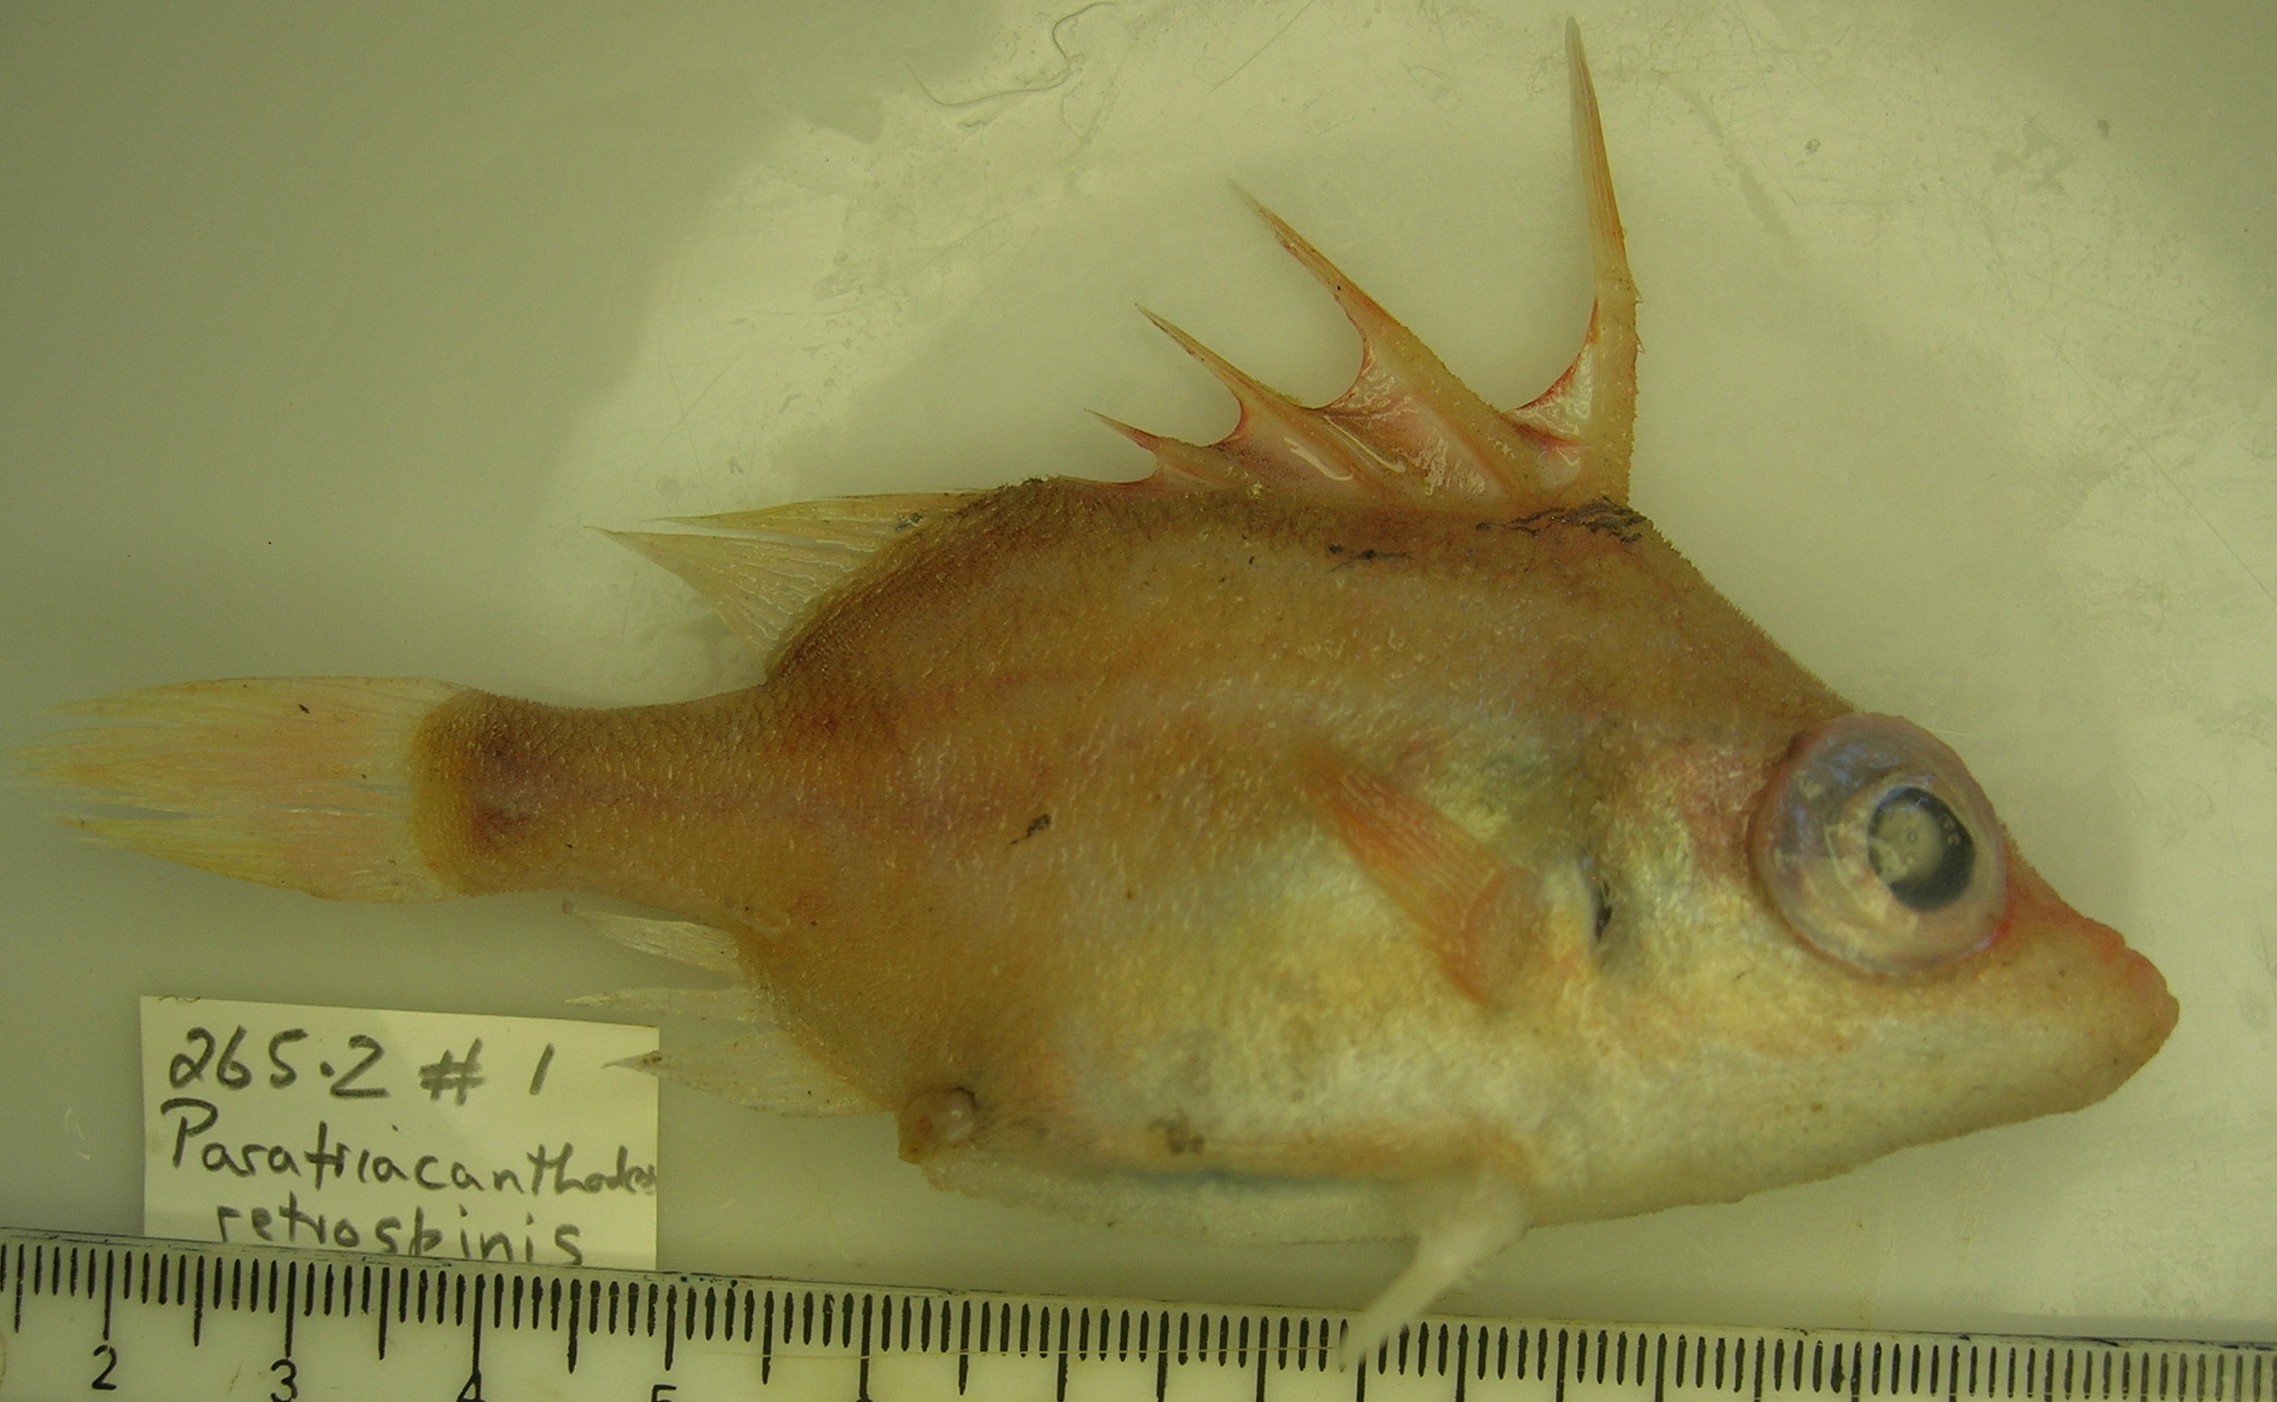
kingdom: Animalia
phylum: Chordata
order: Tetraodontiformes
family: Triacanthodidae
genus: Paratriacanthodes
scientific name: Paratriacanthodes retrospinis
